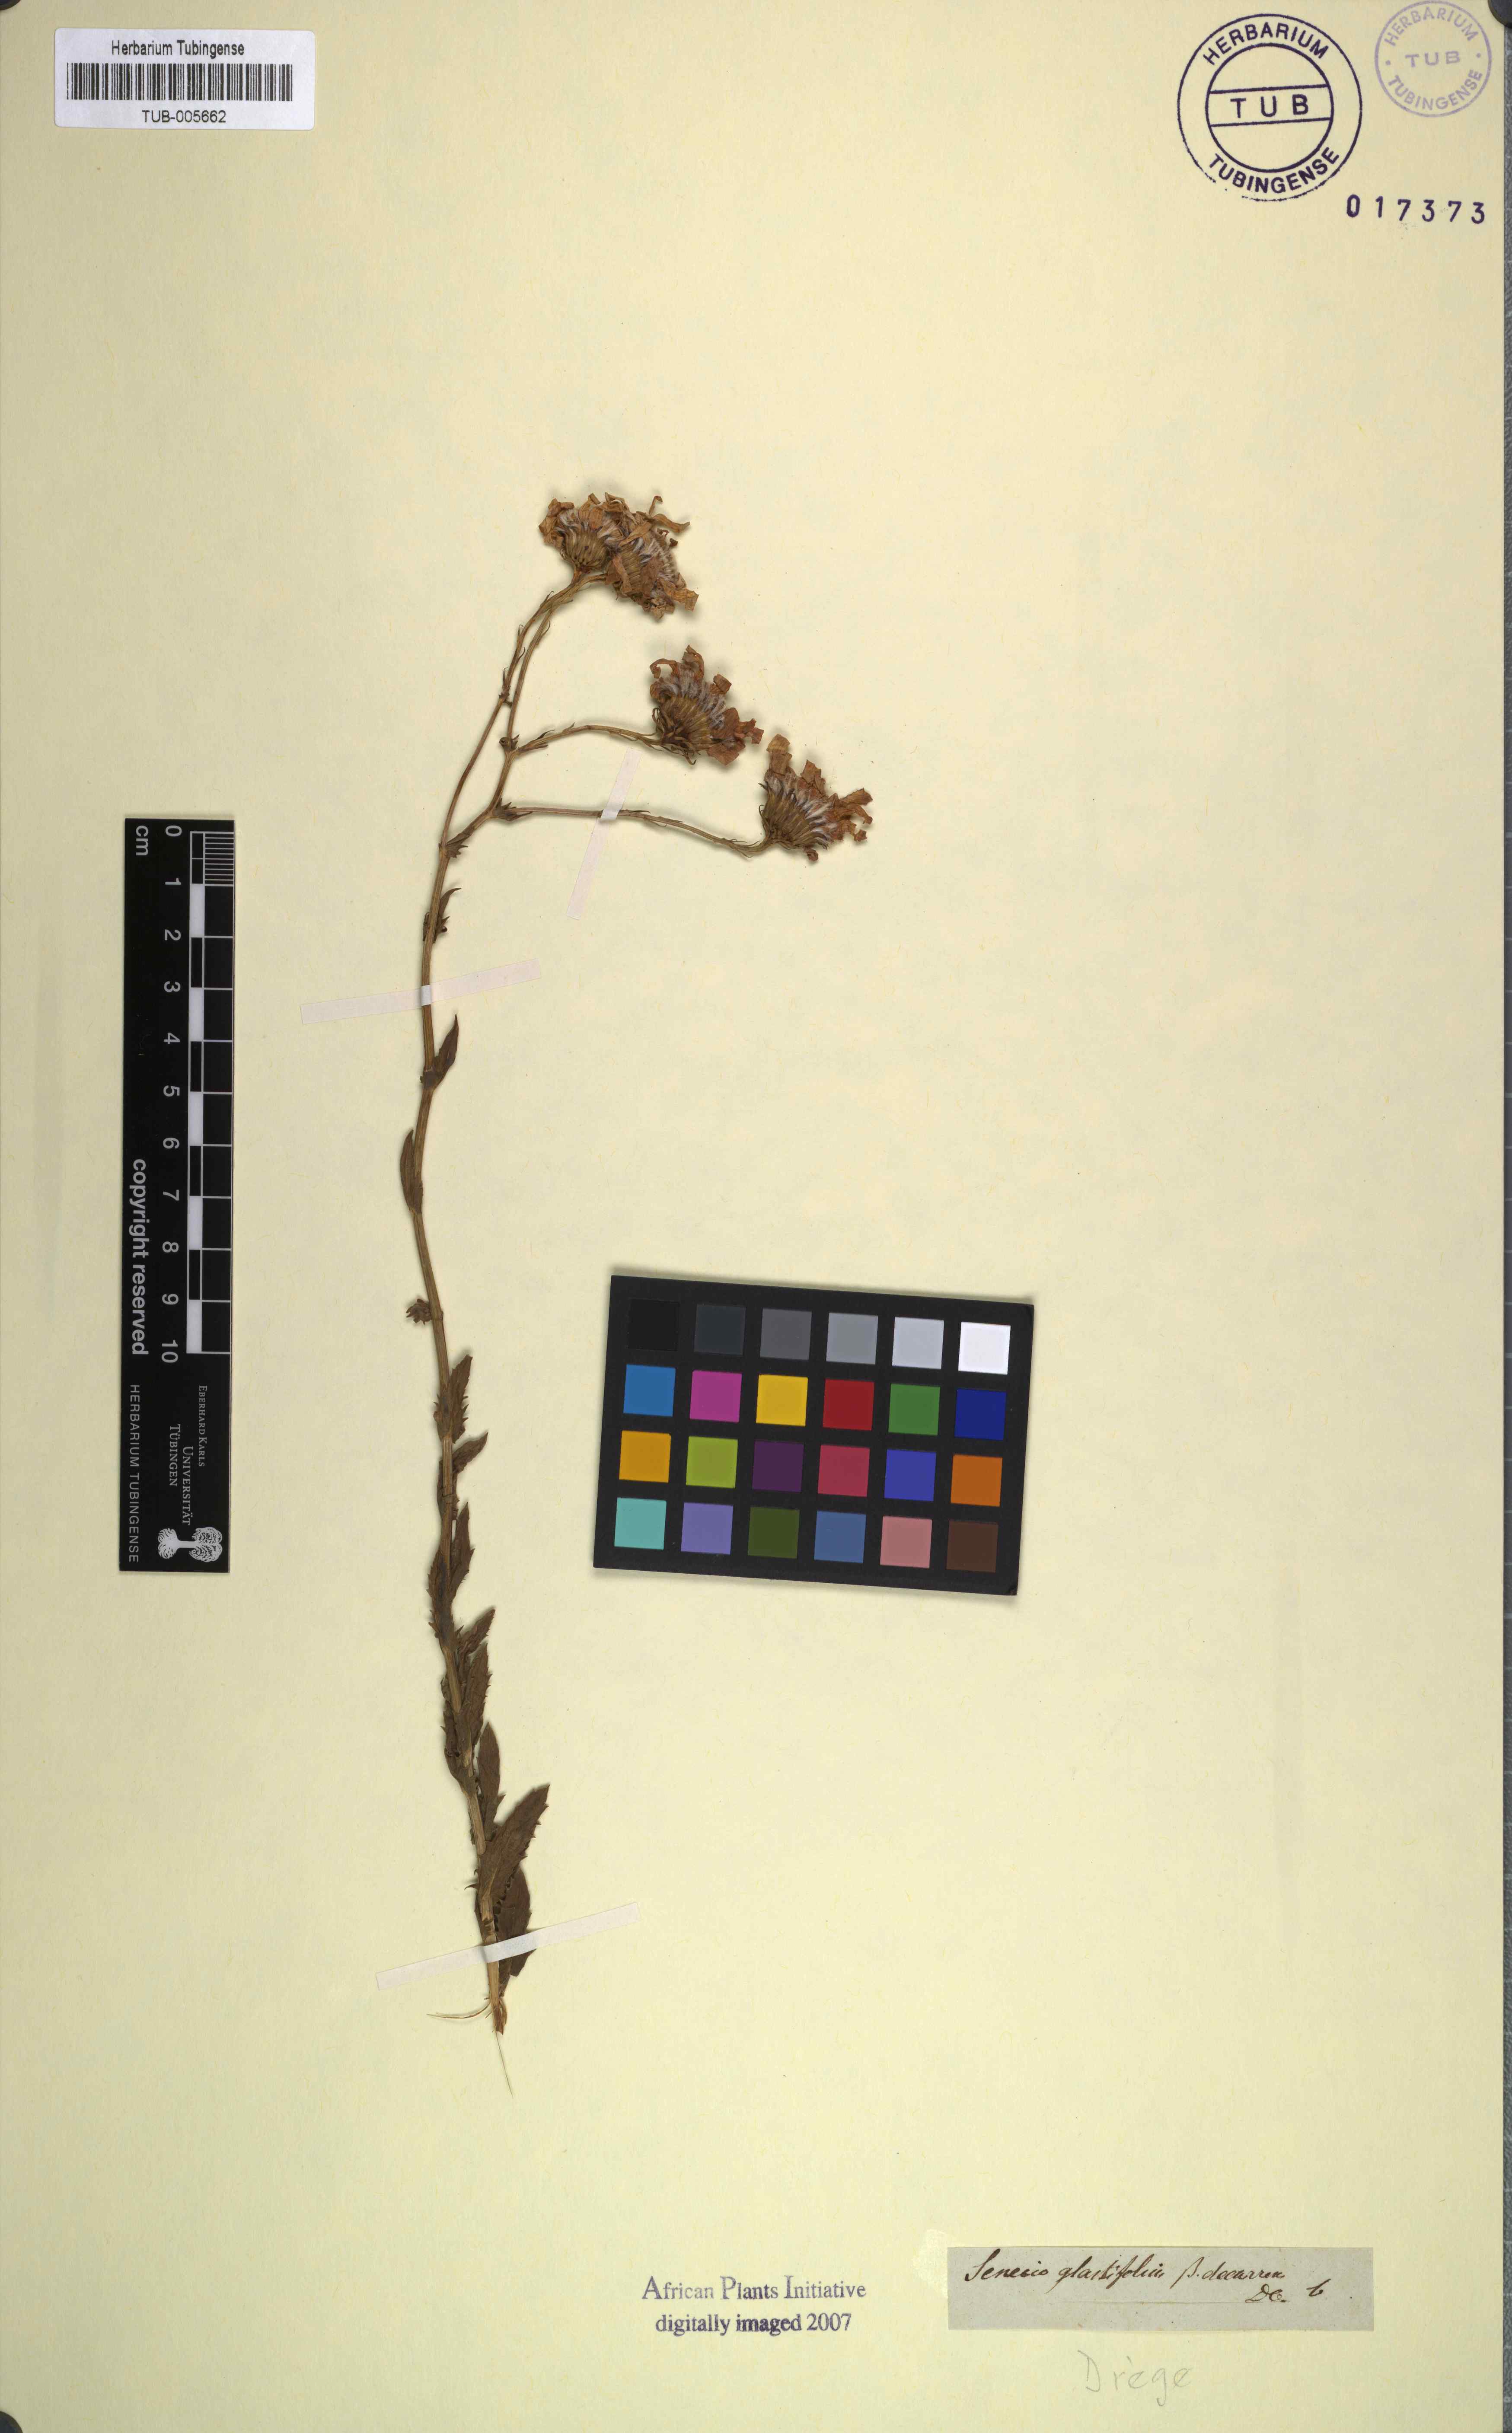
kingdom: Plantae
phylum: Tracheophyta
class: Magnoliopsida
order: Asterales
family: Asteraceae
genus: Senecio
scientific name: Senecio glastifolius
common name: Woad-leaved ragwort
